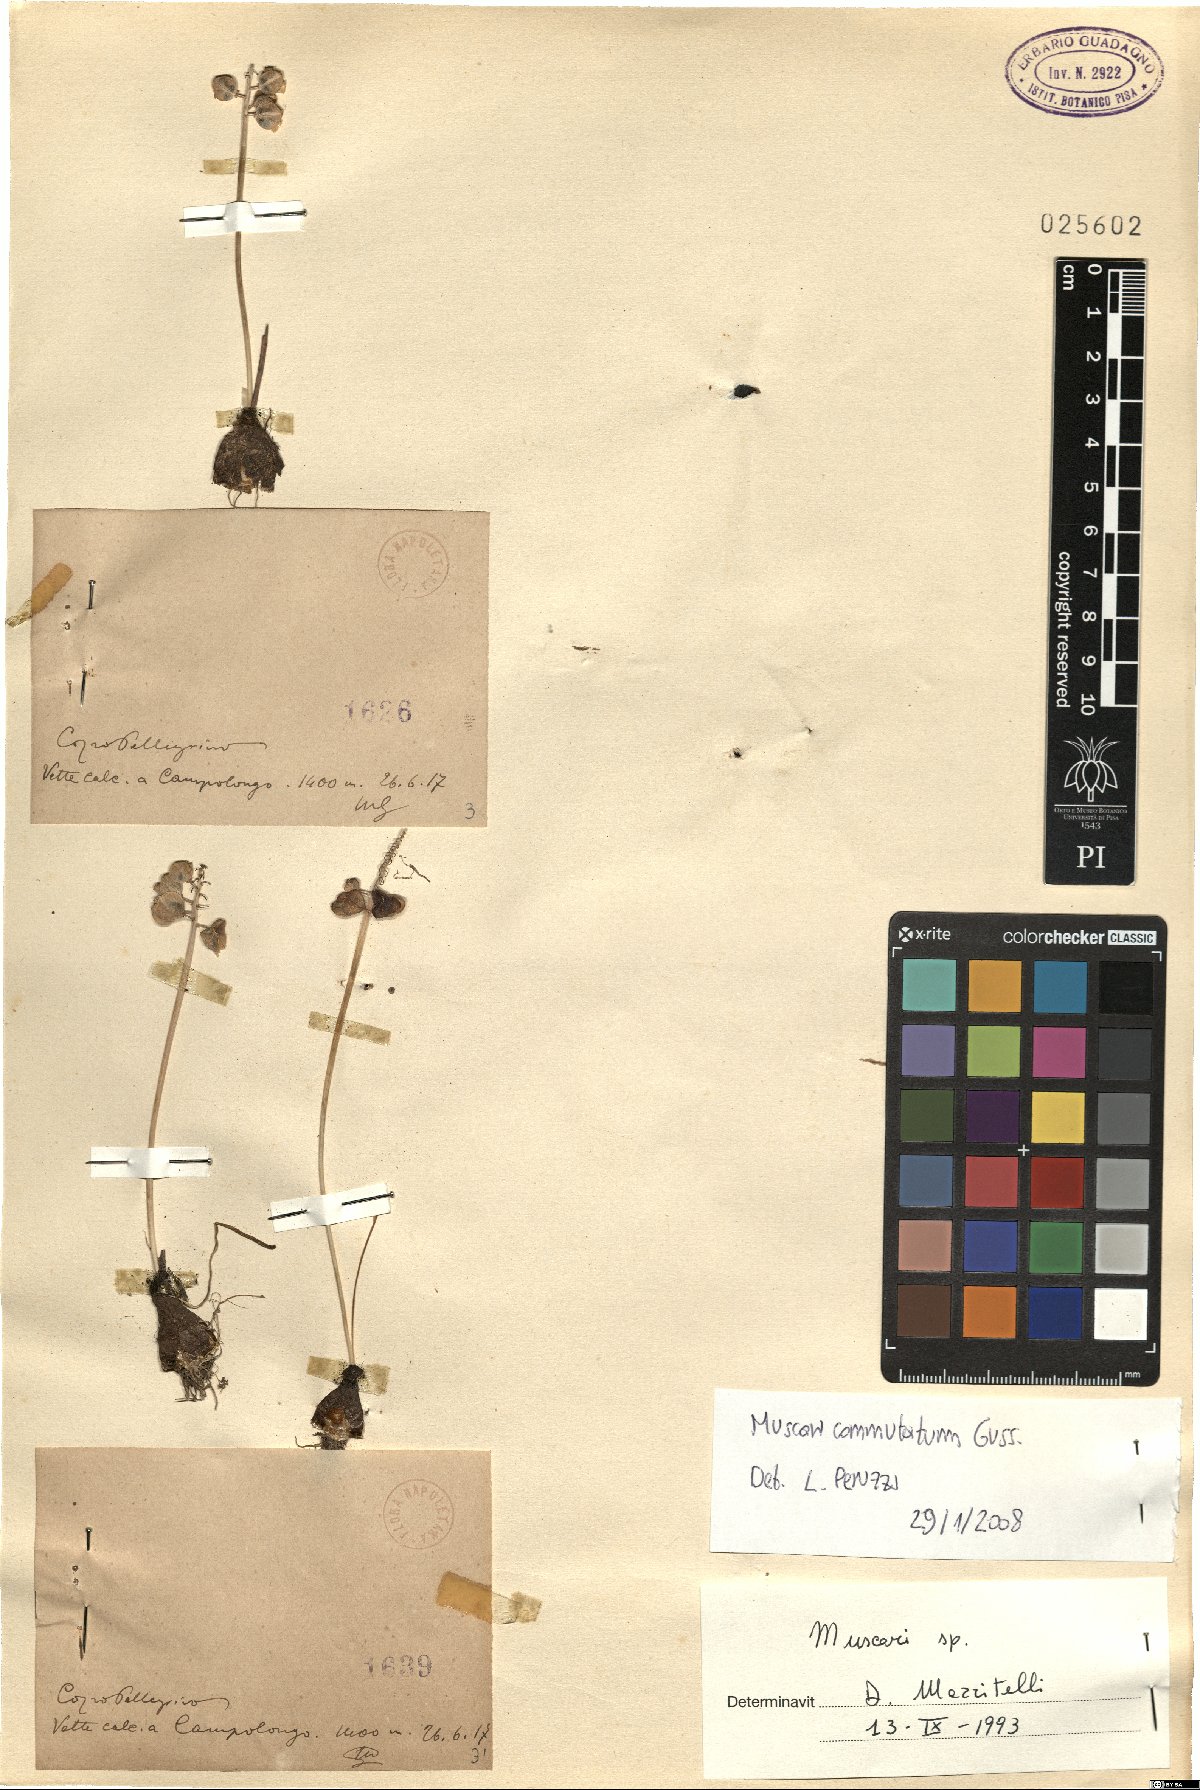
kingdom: Plantae
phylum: Tracheophyta
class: Liliopsida
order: Asparagales
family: Asparagaceae
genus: Muscari
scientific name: Muscari commutatum
